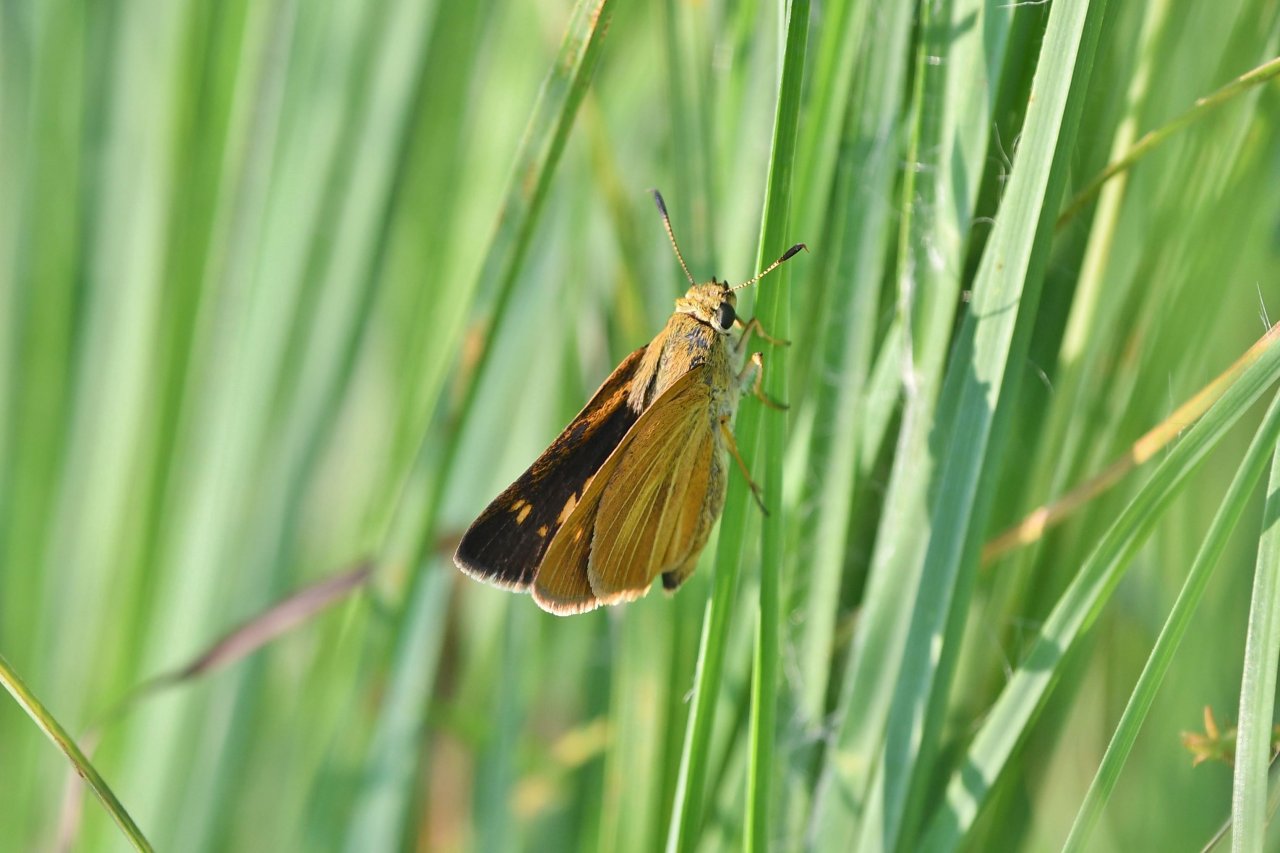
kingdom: Animalia
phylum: Arthropoda
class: Insecta
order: Lepidoptera
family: Hesperiidae
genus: Euphyes
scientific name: Euphyes dion
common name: Dion Skipper
